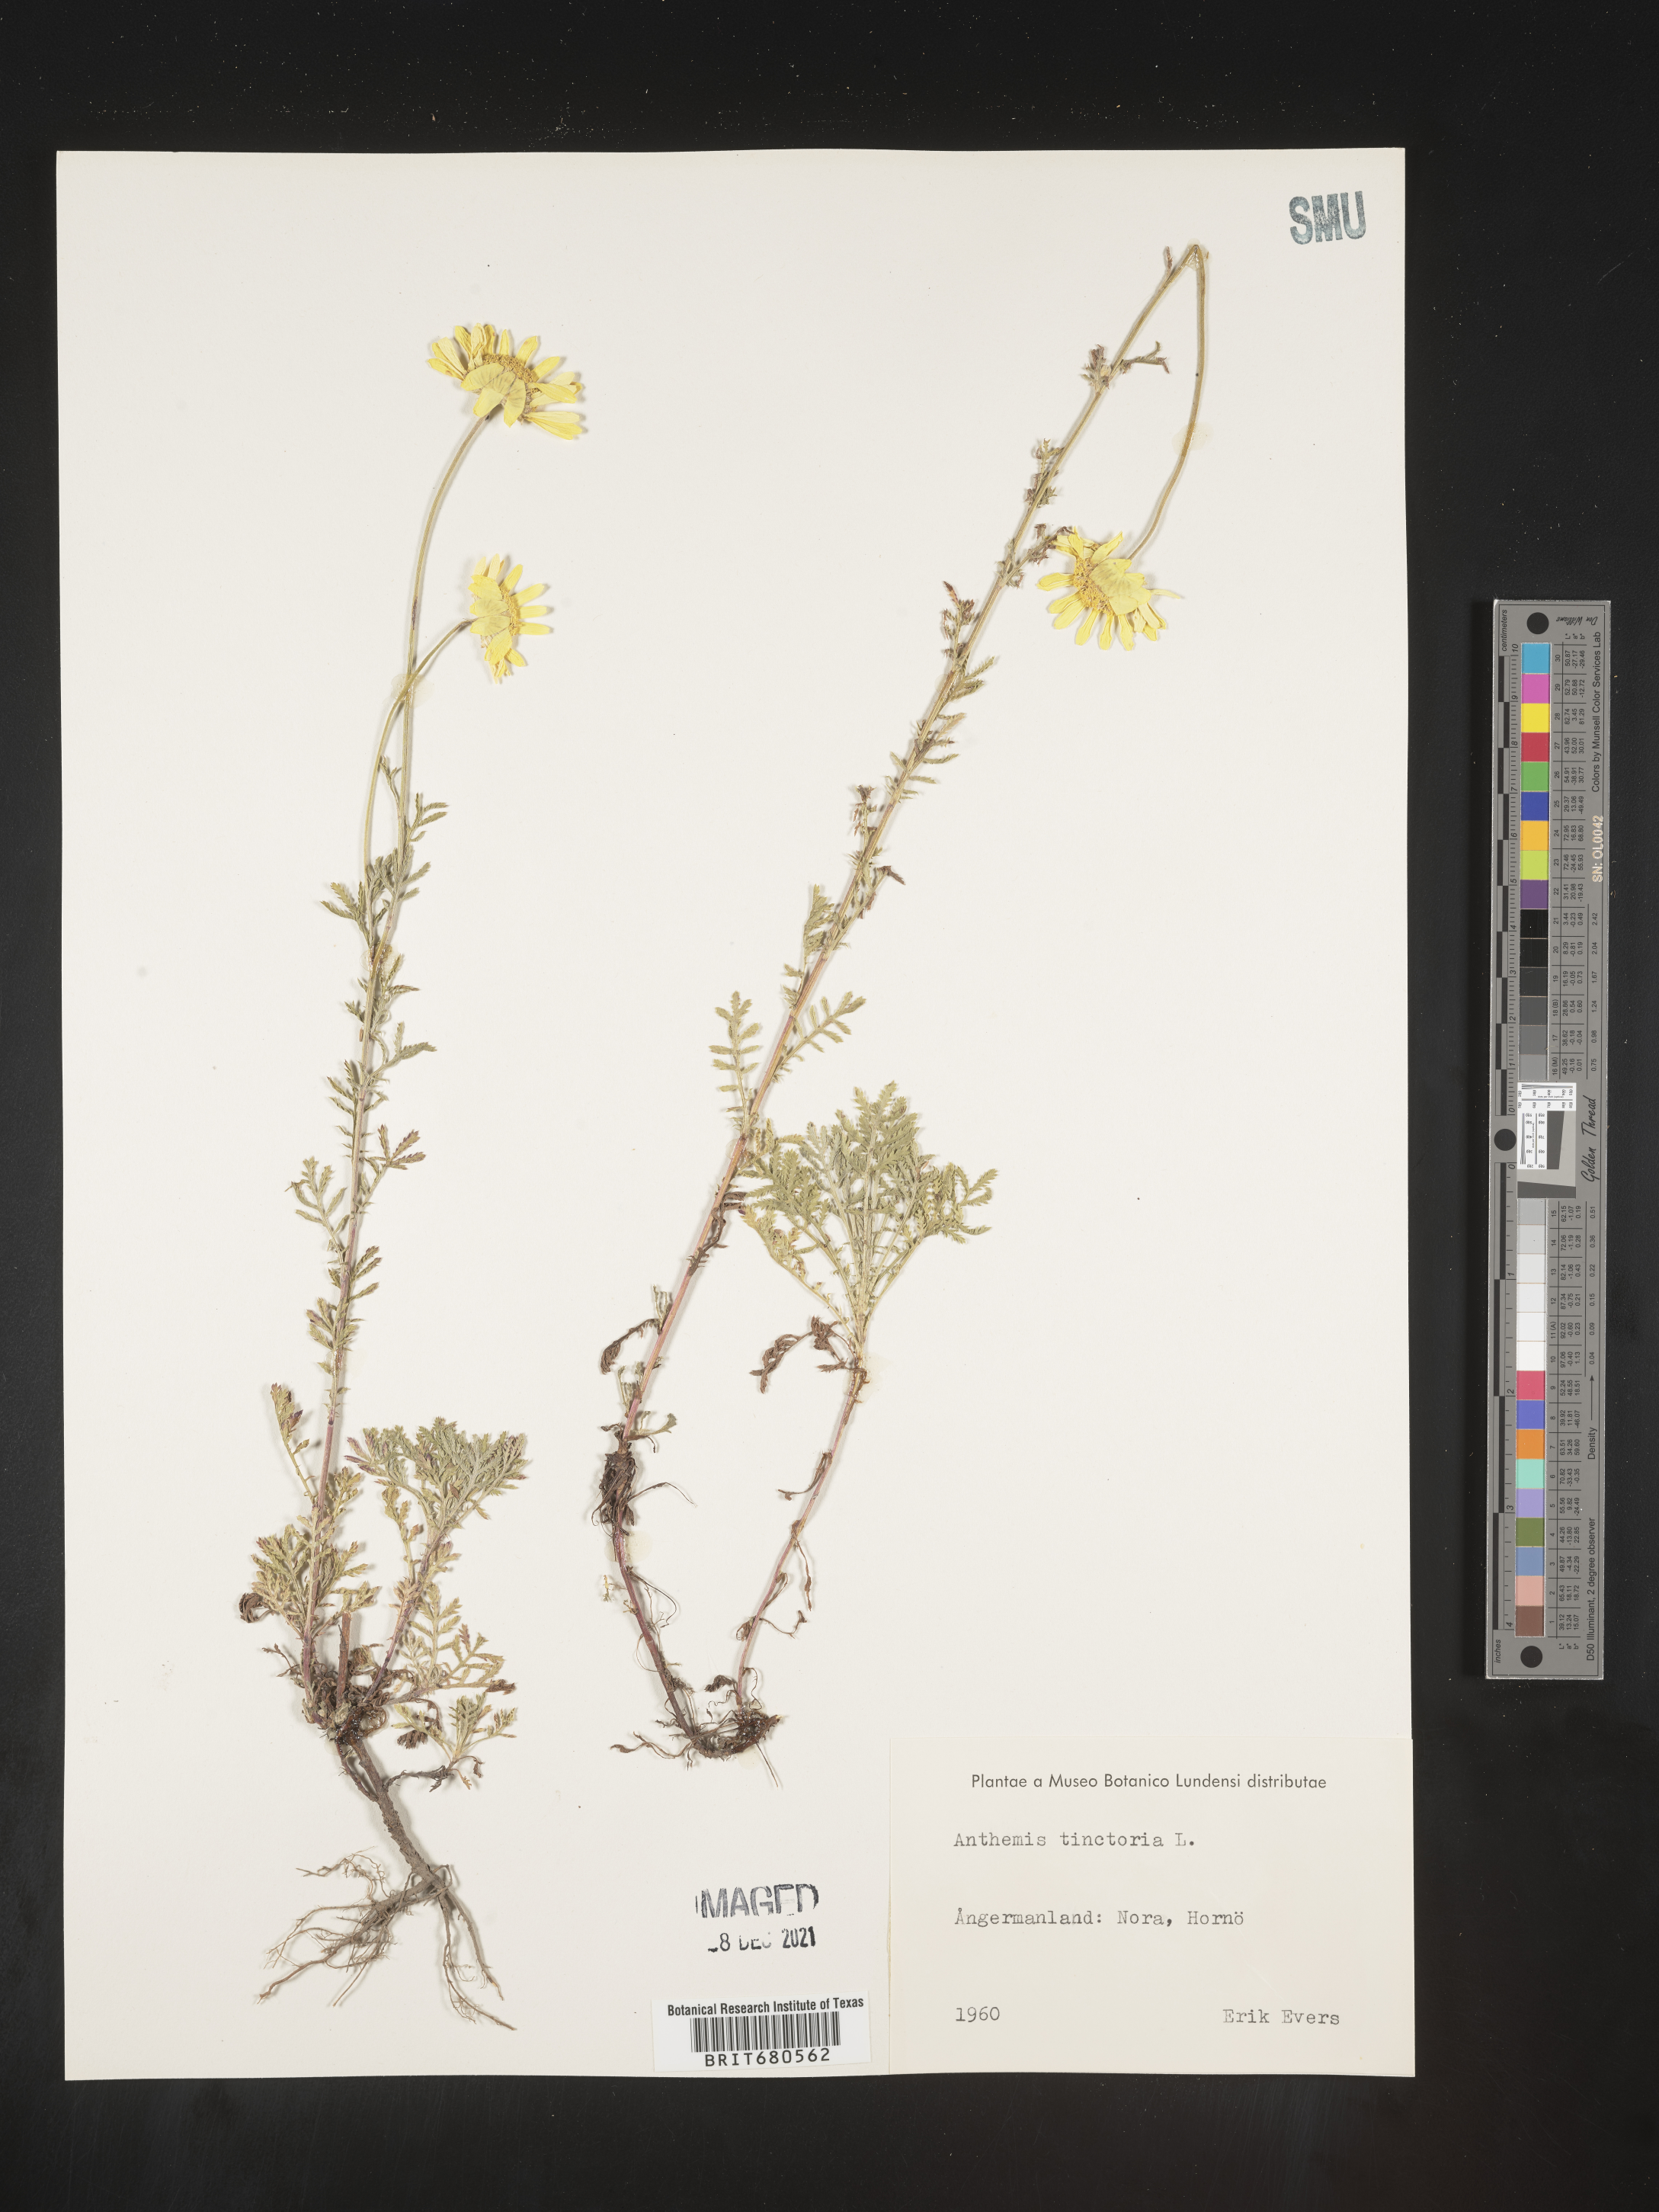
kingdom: Plantae
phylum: Tracheophyta
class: Magnoliopsida
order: Asterales
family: Asteraceae
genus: Anthemis
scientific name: Anthemis
